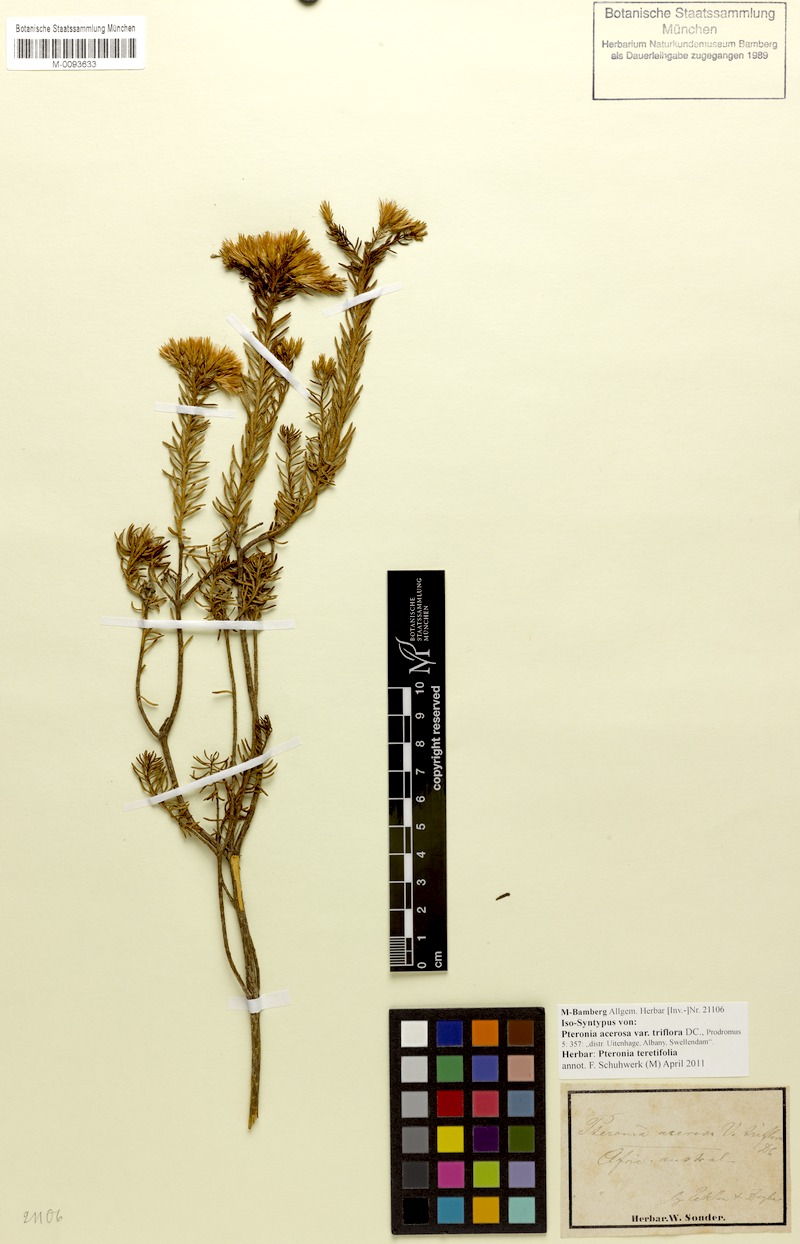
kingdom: Plantae
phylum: Tracheophyta
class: Magnoliopsida
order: Asterales
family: Asteraceae
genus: Pteronia
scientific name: Pteronia teretifolia
